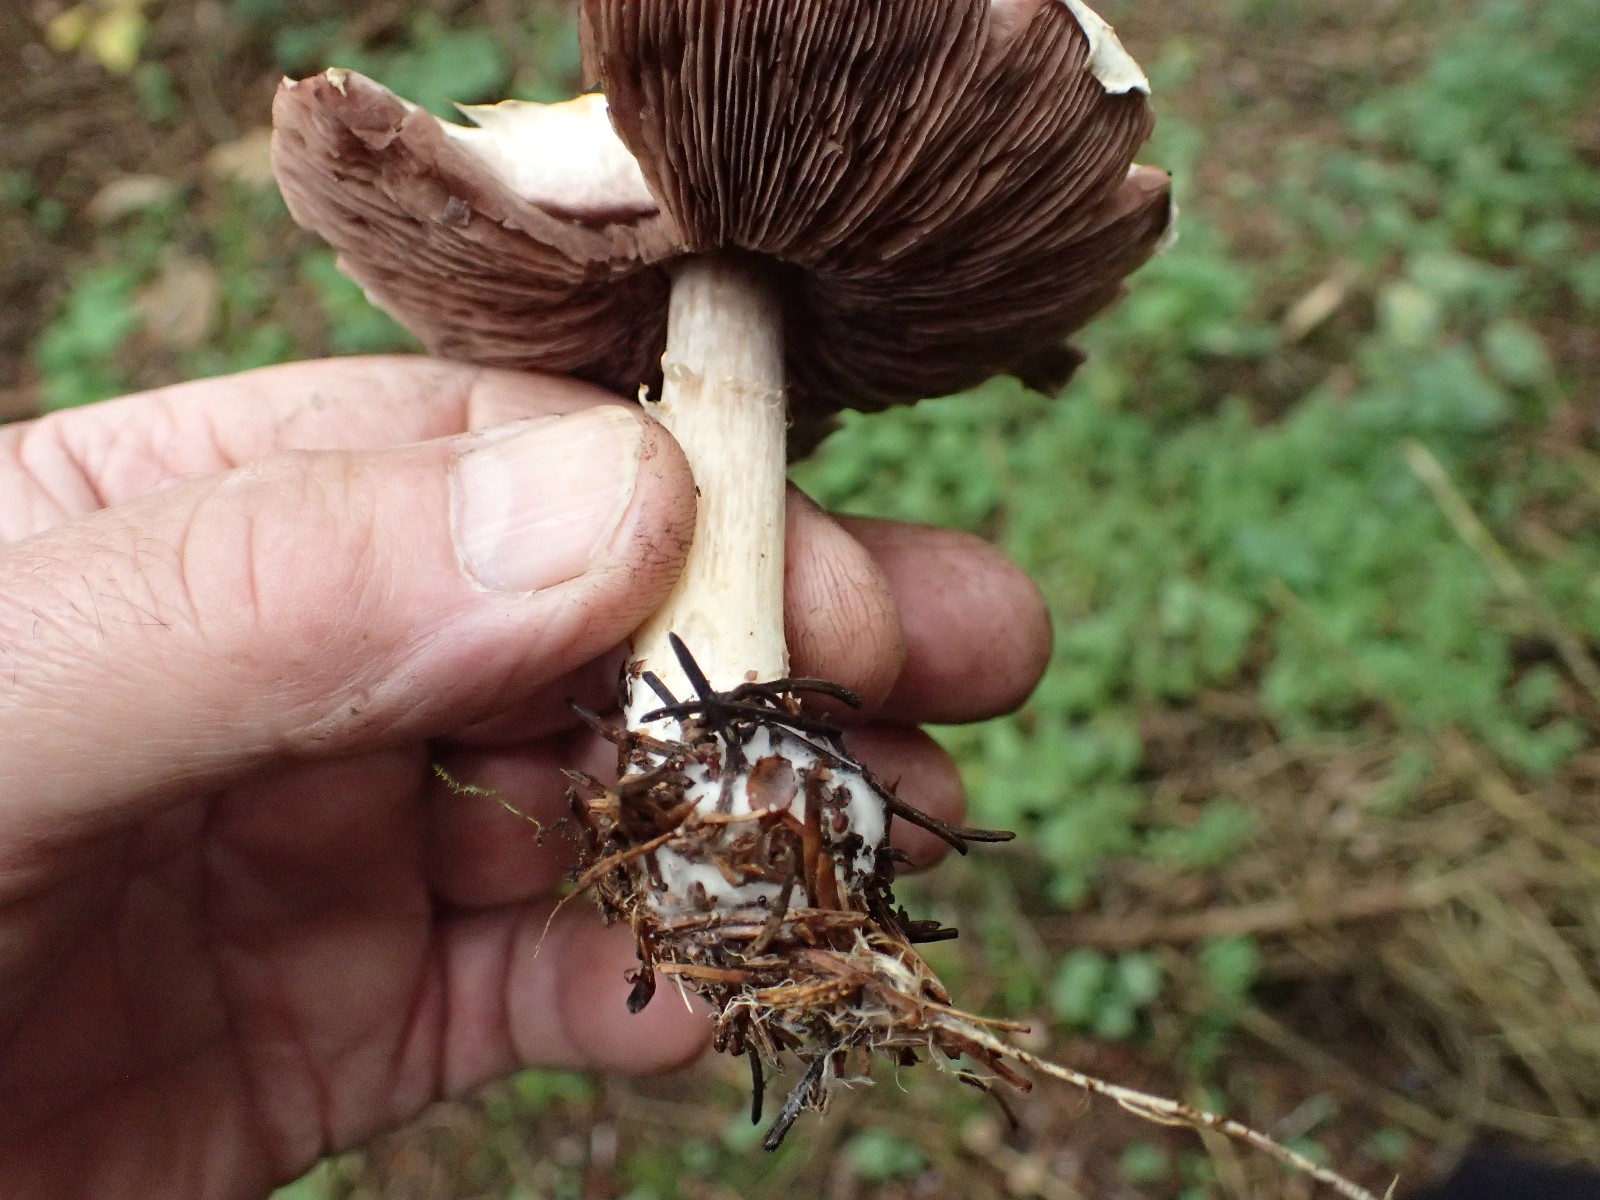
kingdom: Fungi
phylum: Basidiomycota
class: Agaricomycetes
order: Agaricales
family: Agaricaceae
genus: Agaricus
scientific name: Agaricus sylvicola
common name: gulhvid champignon
